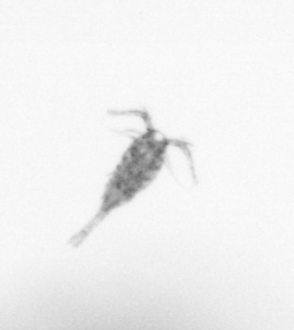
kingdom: Animalia
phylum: Arthropoda
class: Copepoda
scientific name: Copepoda
